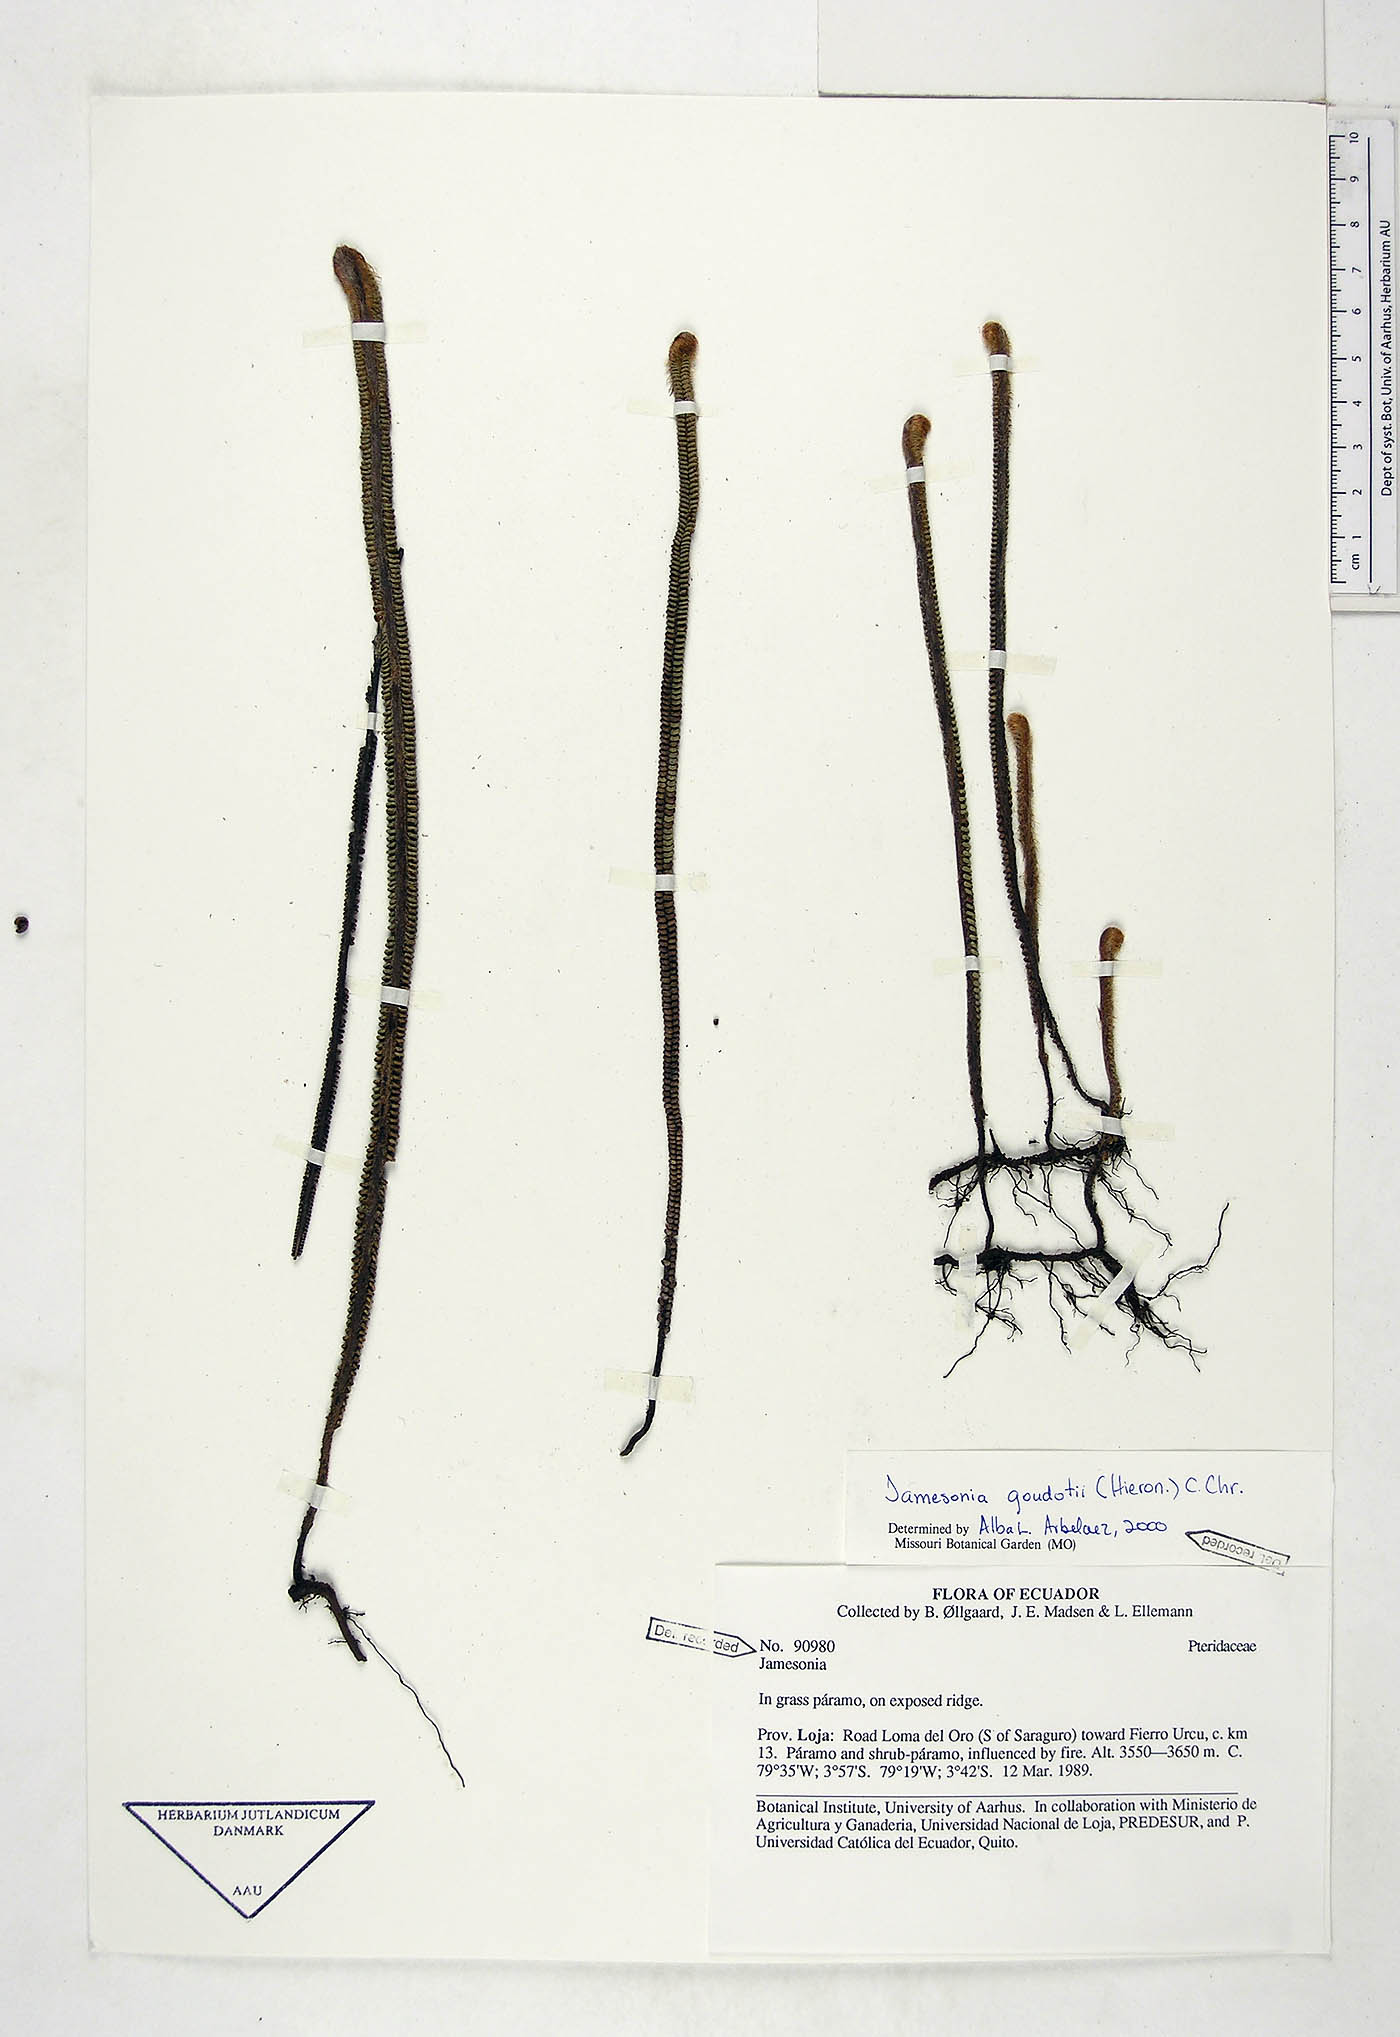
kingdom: Plantae
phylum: Tracheophyta
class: Polypodiopsida
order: Polypodiales
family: Pteridaceae
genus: Jamesonia
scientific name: Jamesonia goudotii
